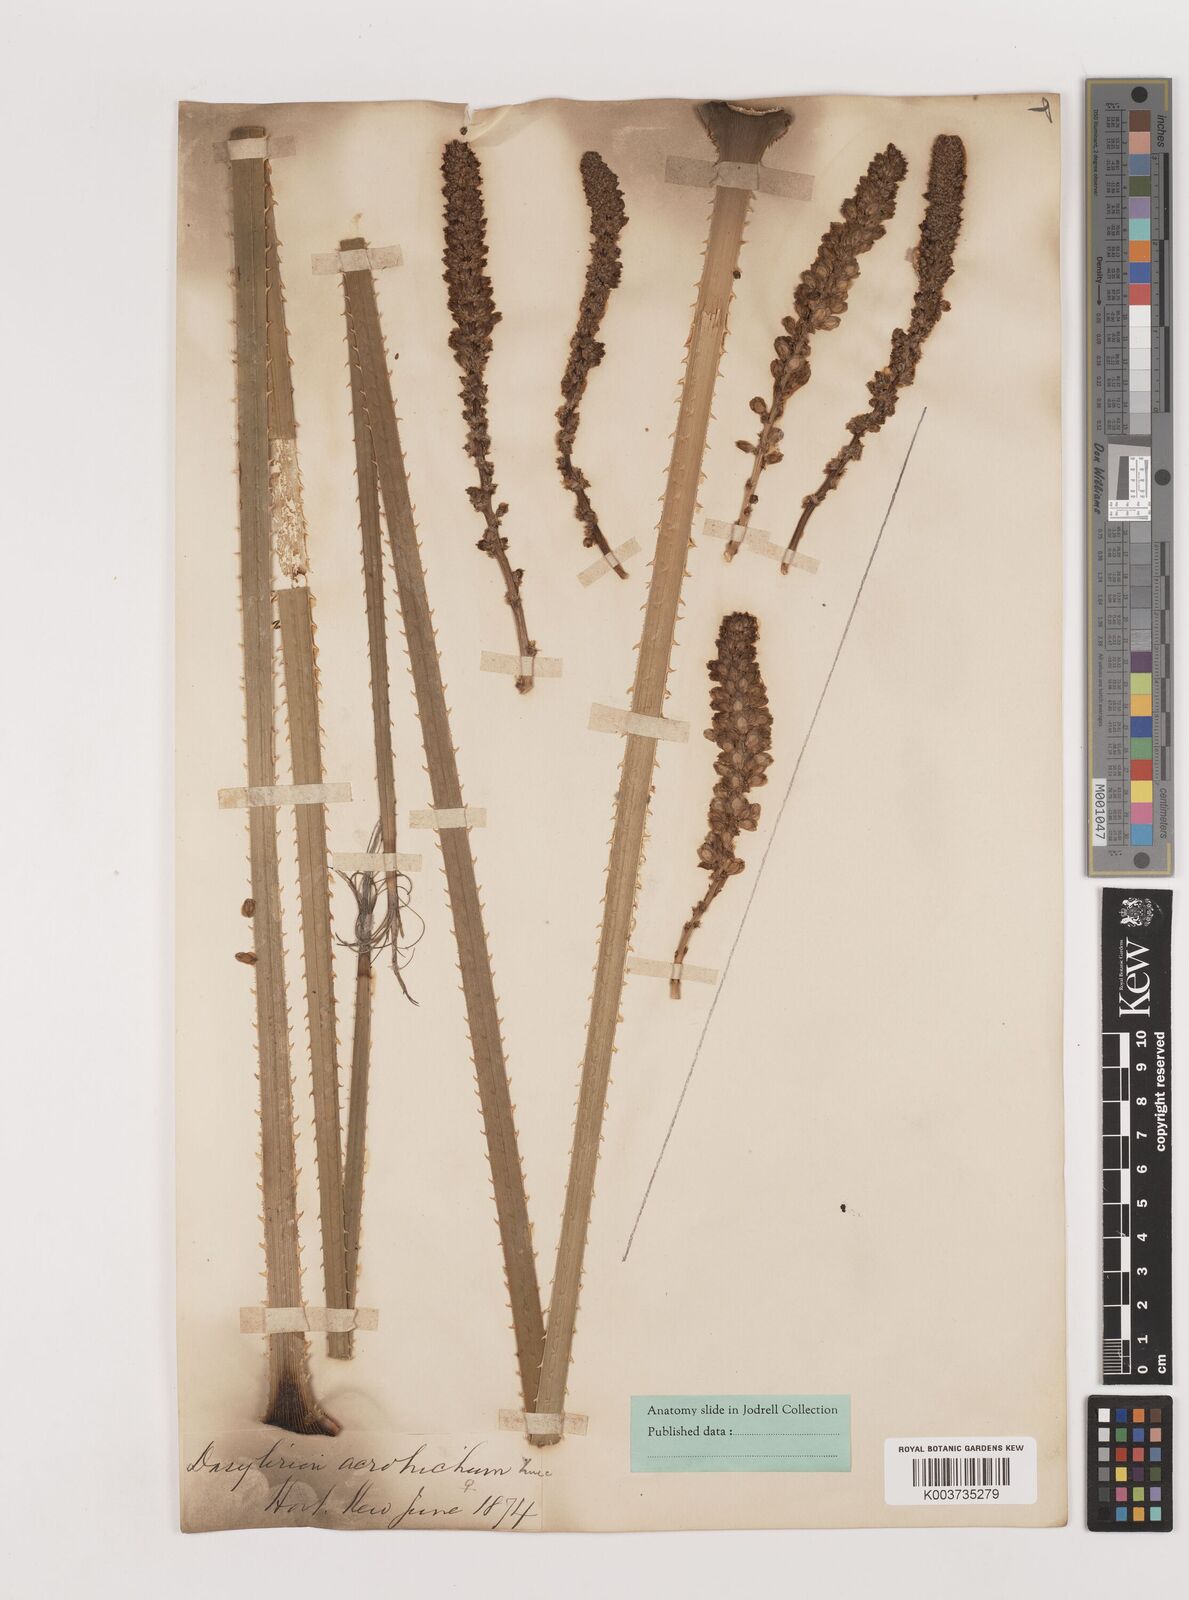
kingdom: Plantae
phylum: Tracheophyta
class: Liliopsida
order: Asparagales
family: Asparagaceae
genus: Dasylirion
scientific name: Dasylirion acrotrichum
